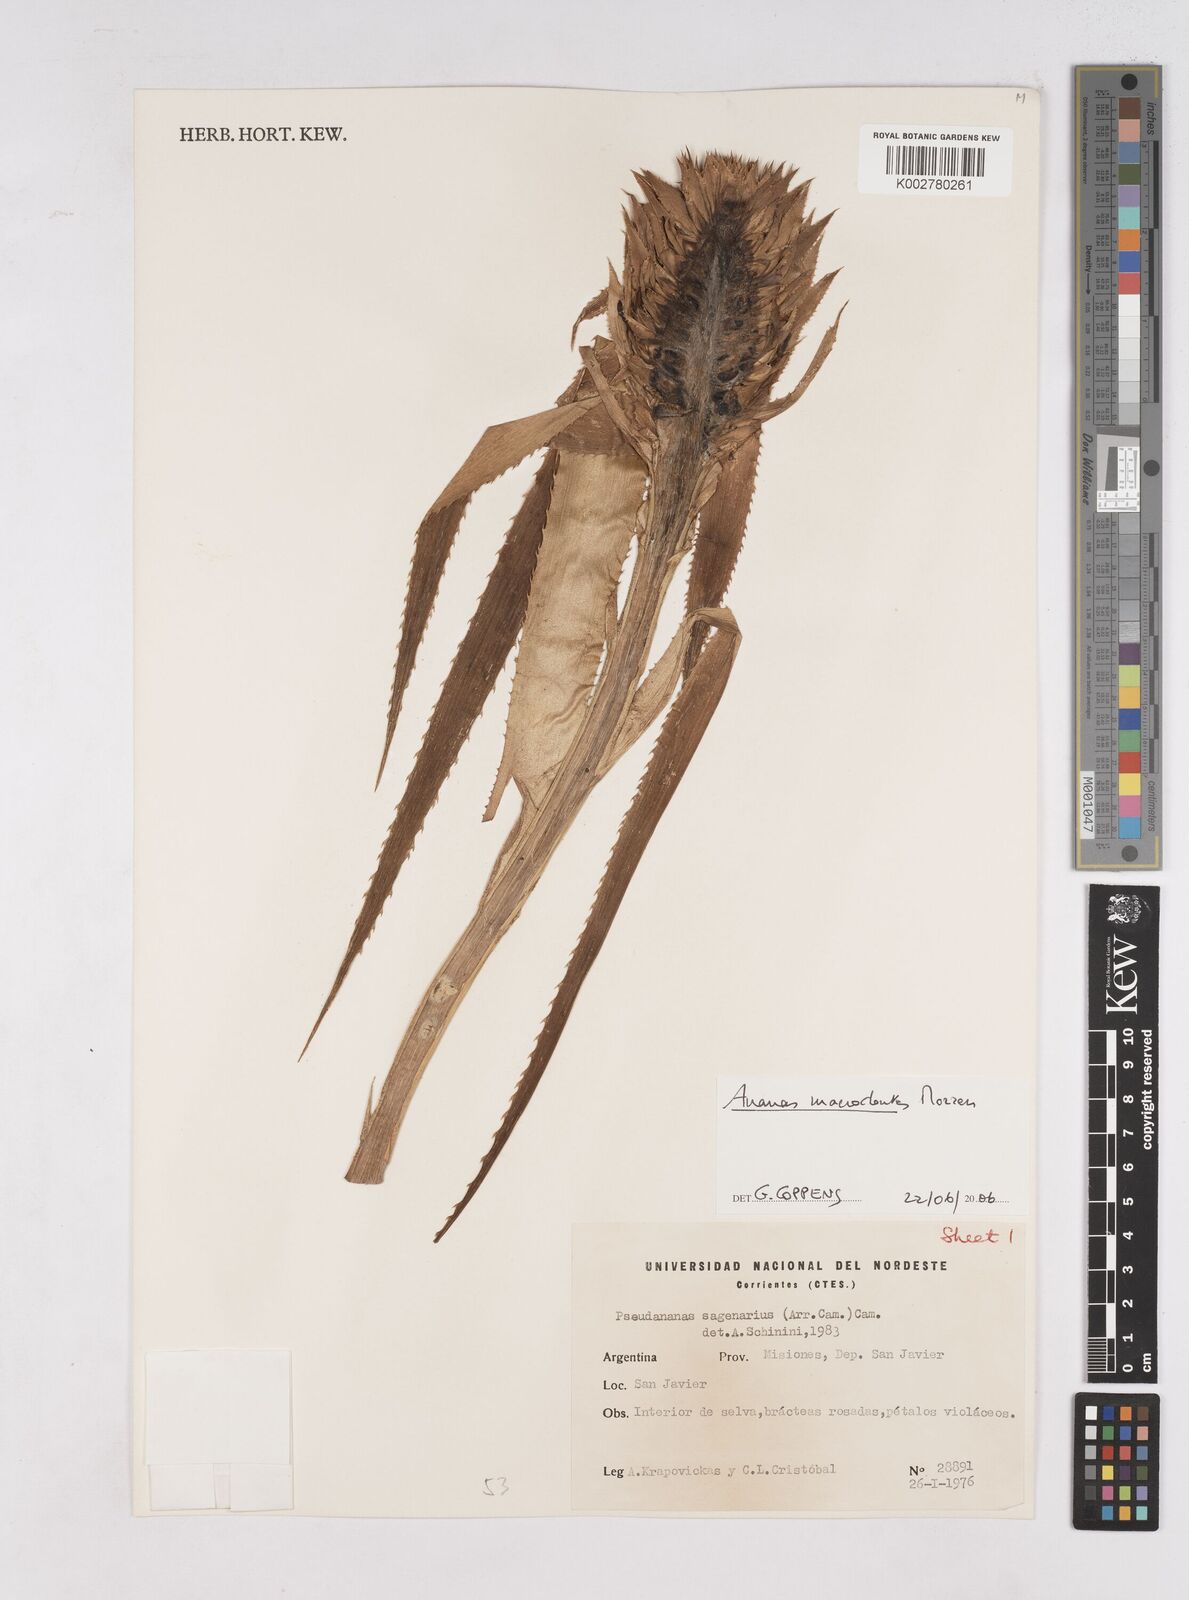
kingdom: Plantae
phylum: Tracheophyta
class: Liliopsida
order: Poales
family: Bromeliaceae
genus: Ananas
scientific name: Ananas macrodontes
